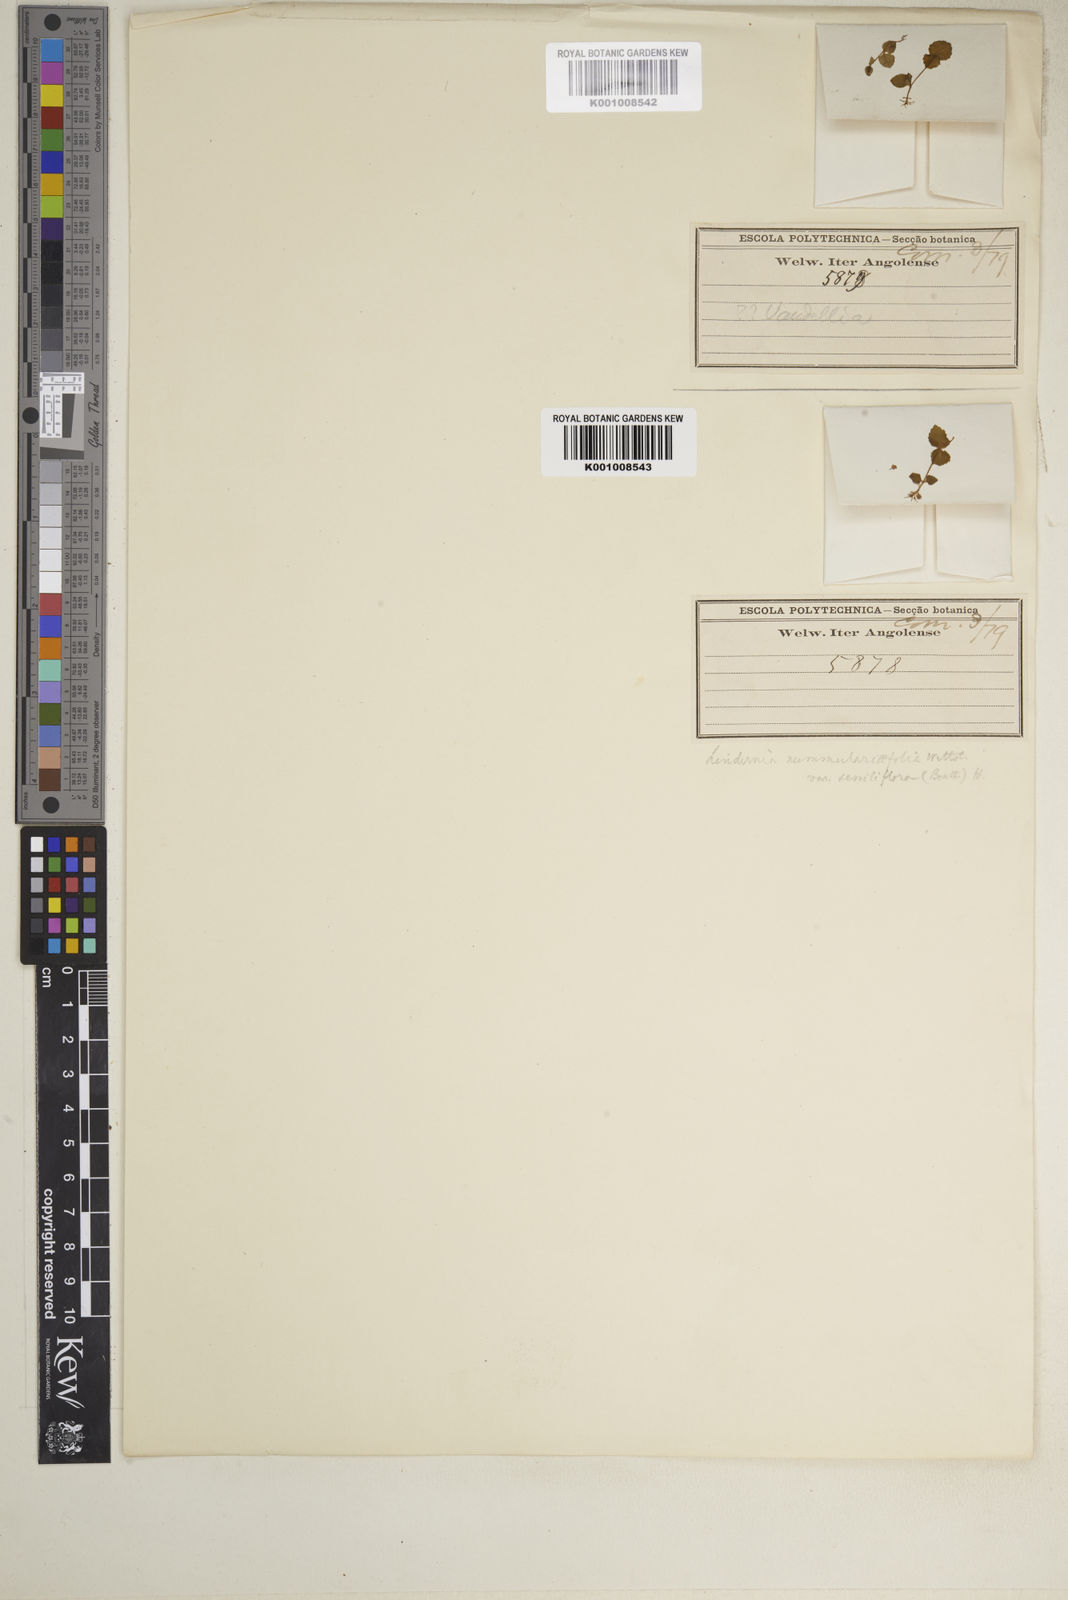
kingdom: Plantae
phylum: Tracheophyta
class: Magnoliopsida
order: Lamiales
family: Linderniaceae
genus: Craterostigma
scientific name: Craterostigma nummulariifolium
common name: False pimpernel
